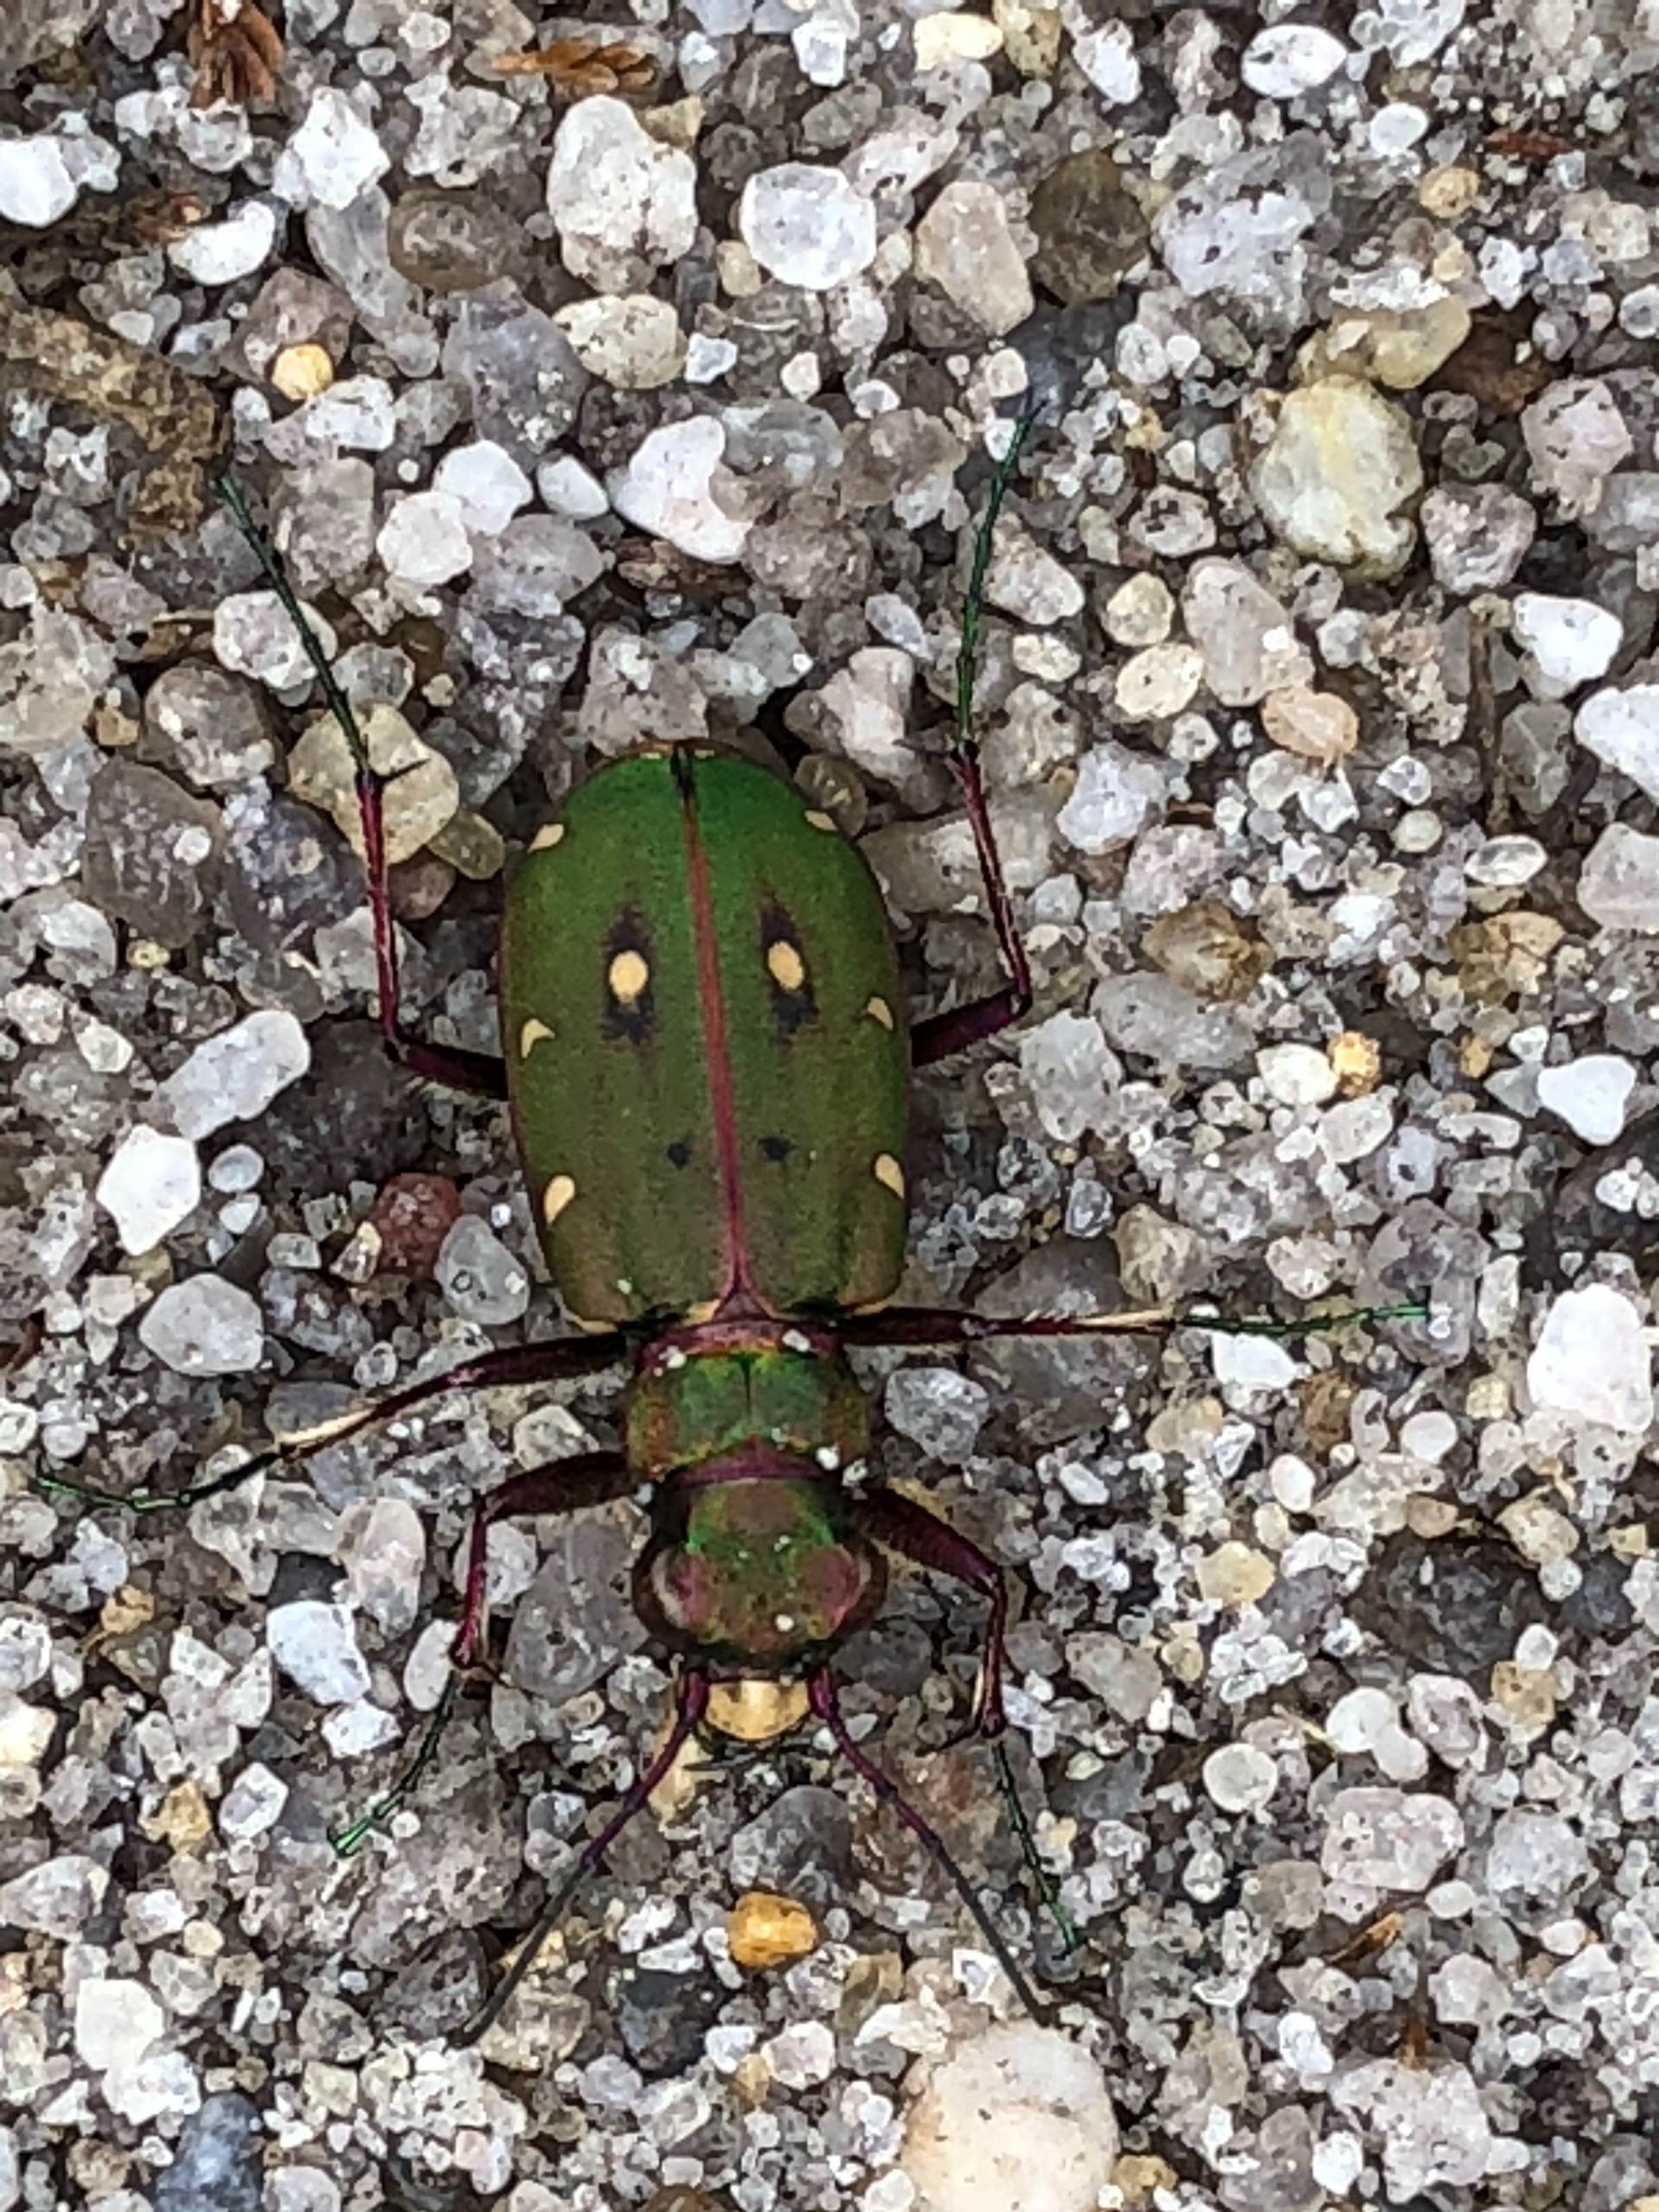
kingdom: Animalia
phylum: Arthropoda
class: Insecta
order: Coleoptera
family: Carabidae
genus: Cicindela
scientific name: Cicindela campestris
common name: Grøn sandspringer
